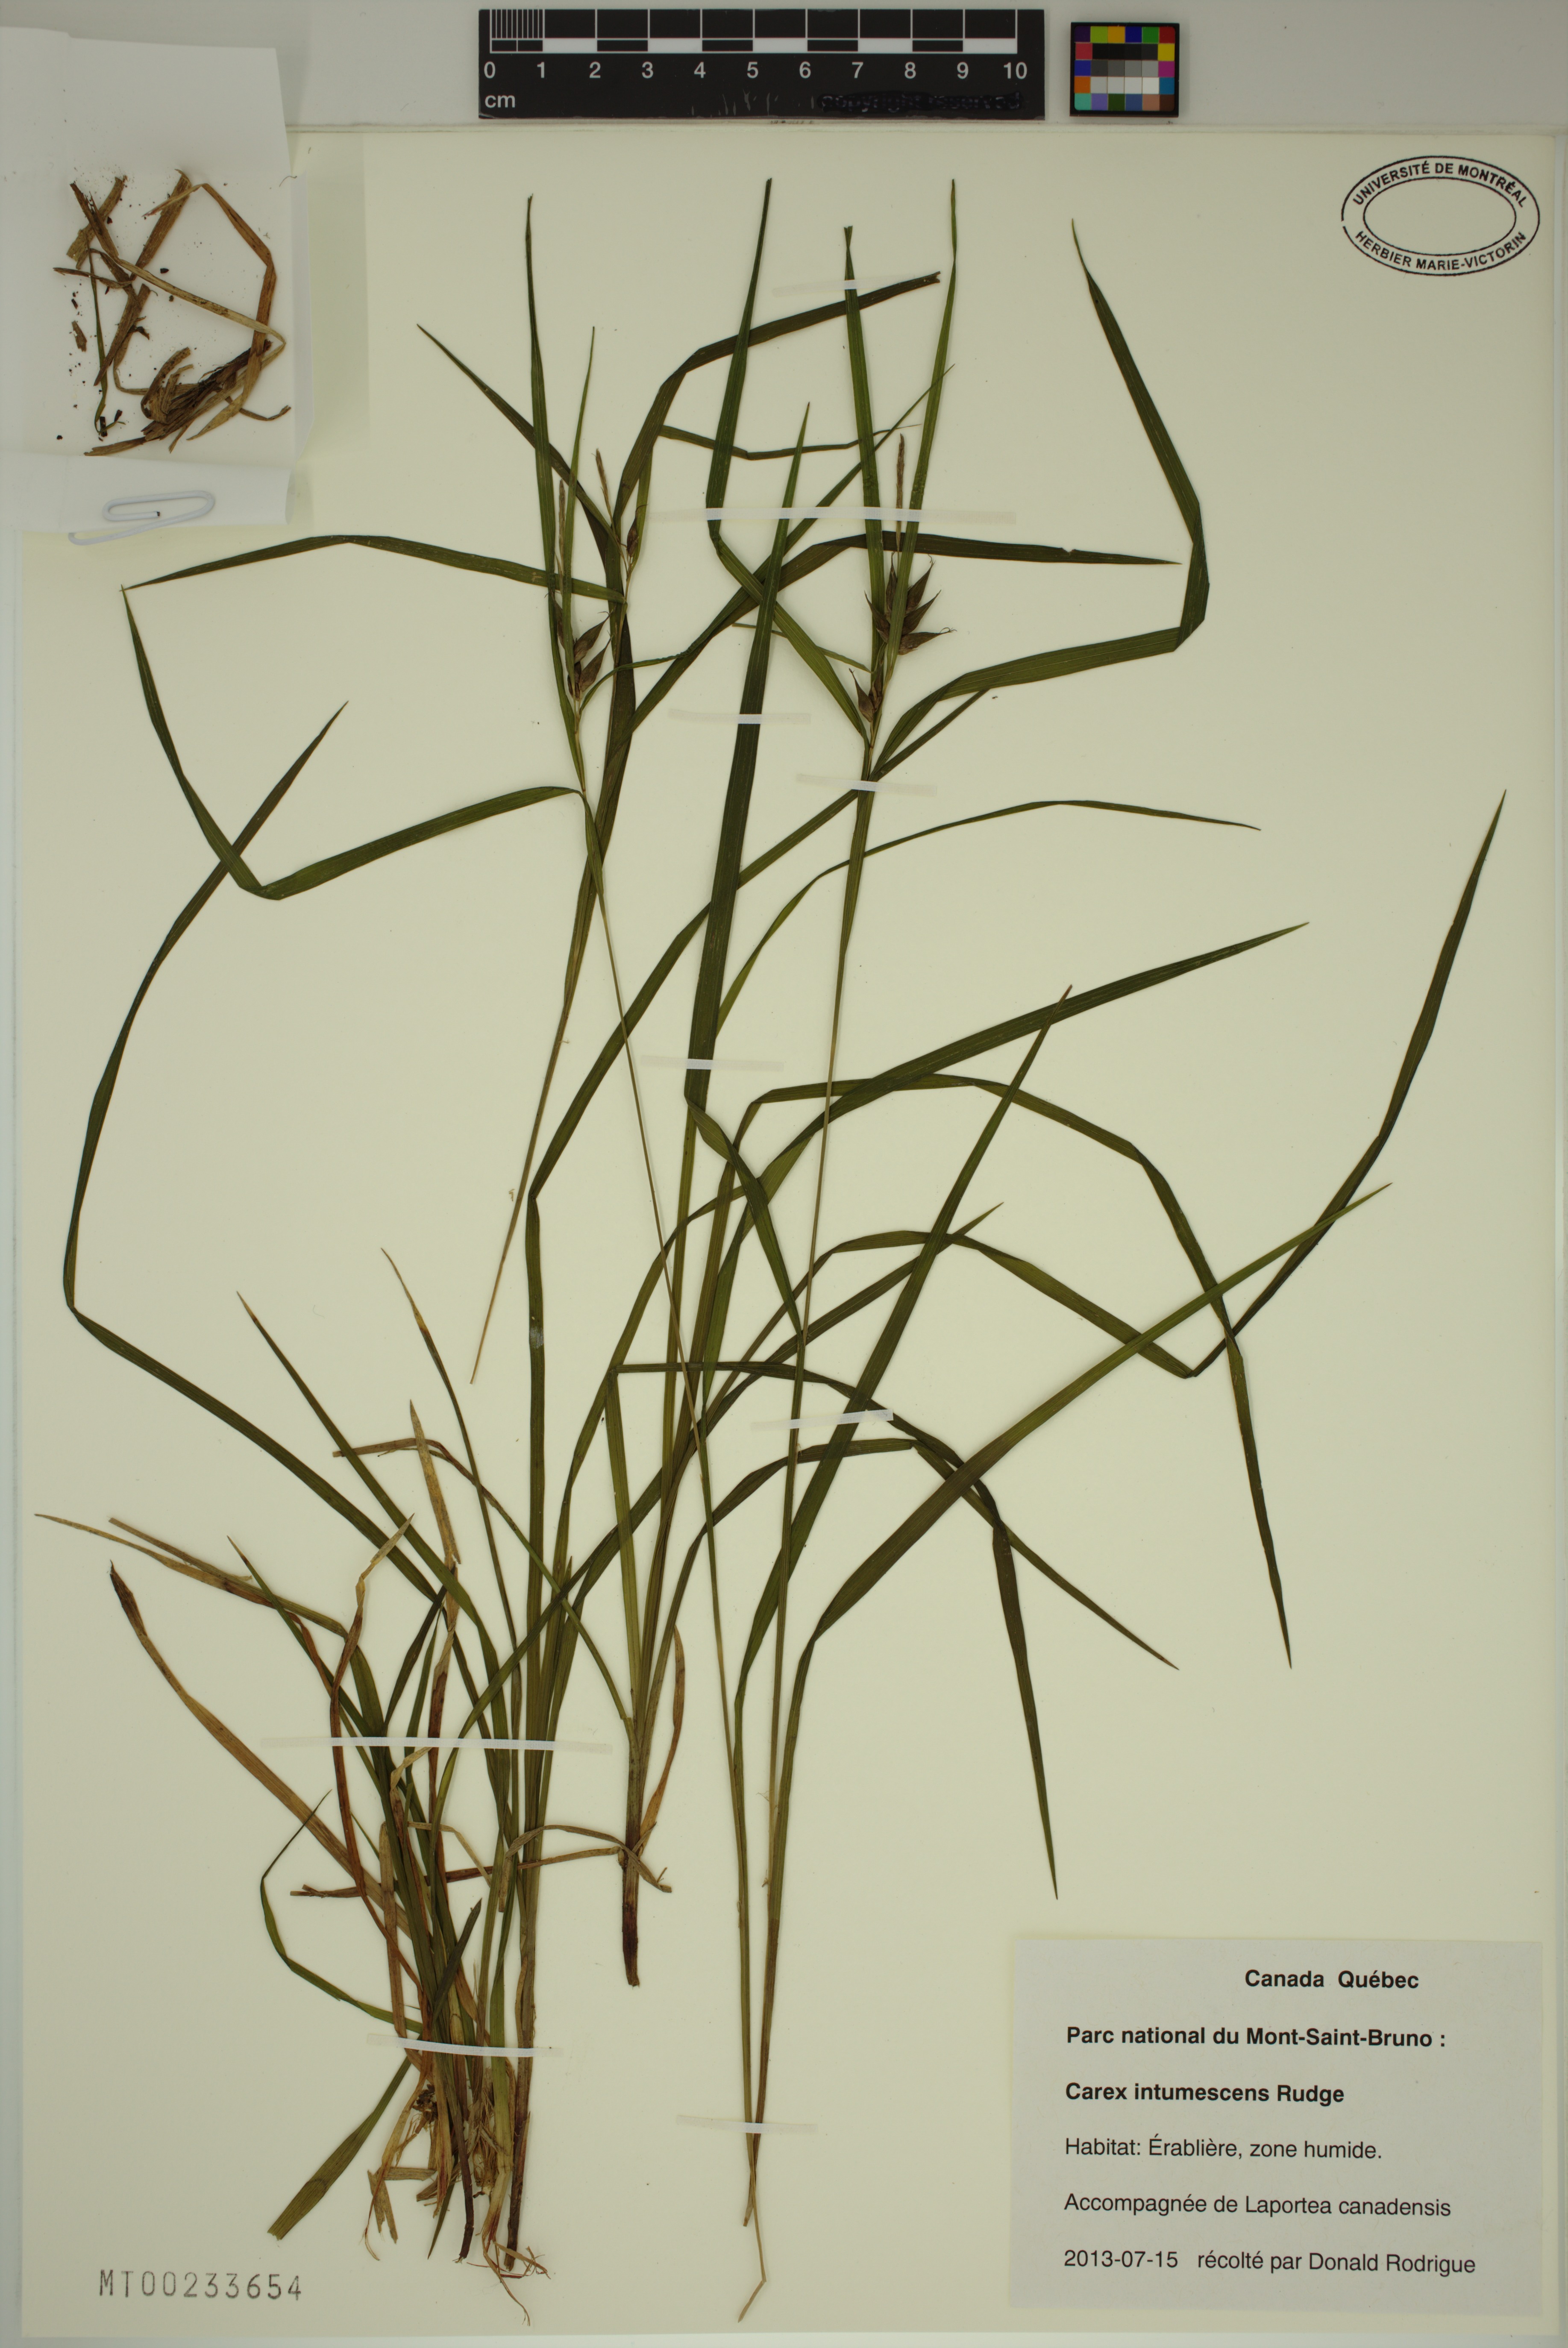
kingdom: Plantae
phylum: Tracheophyta
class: Liliopsida
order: Poales
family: Cyperaceae
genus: Carex
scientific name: Carex intumescens
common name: Greater bladder sedge
